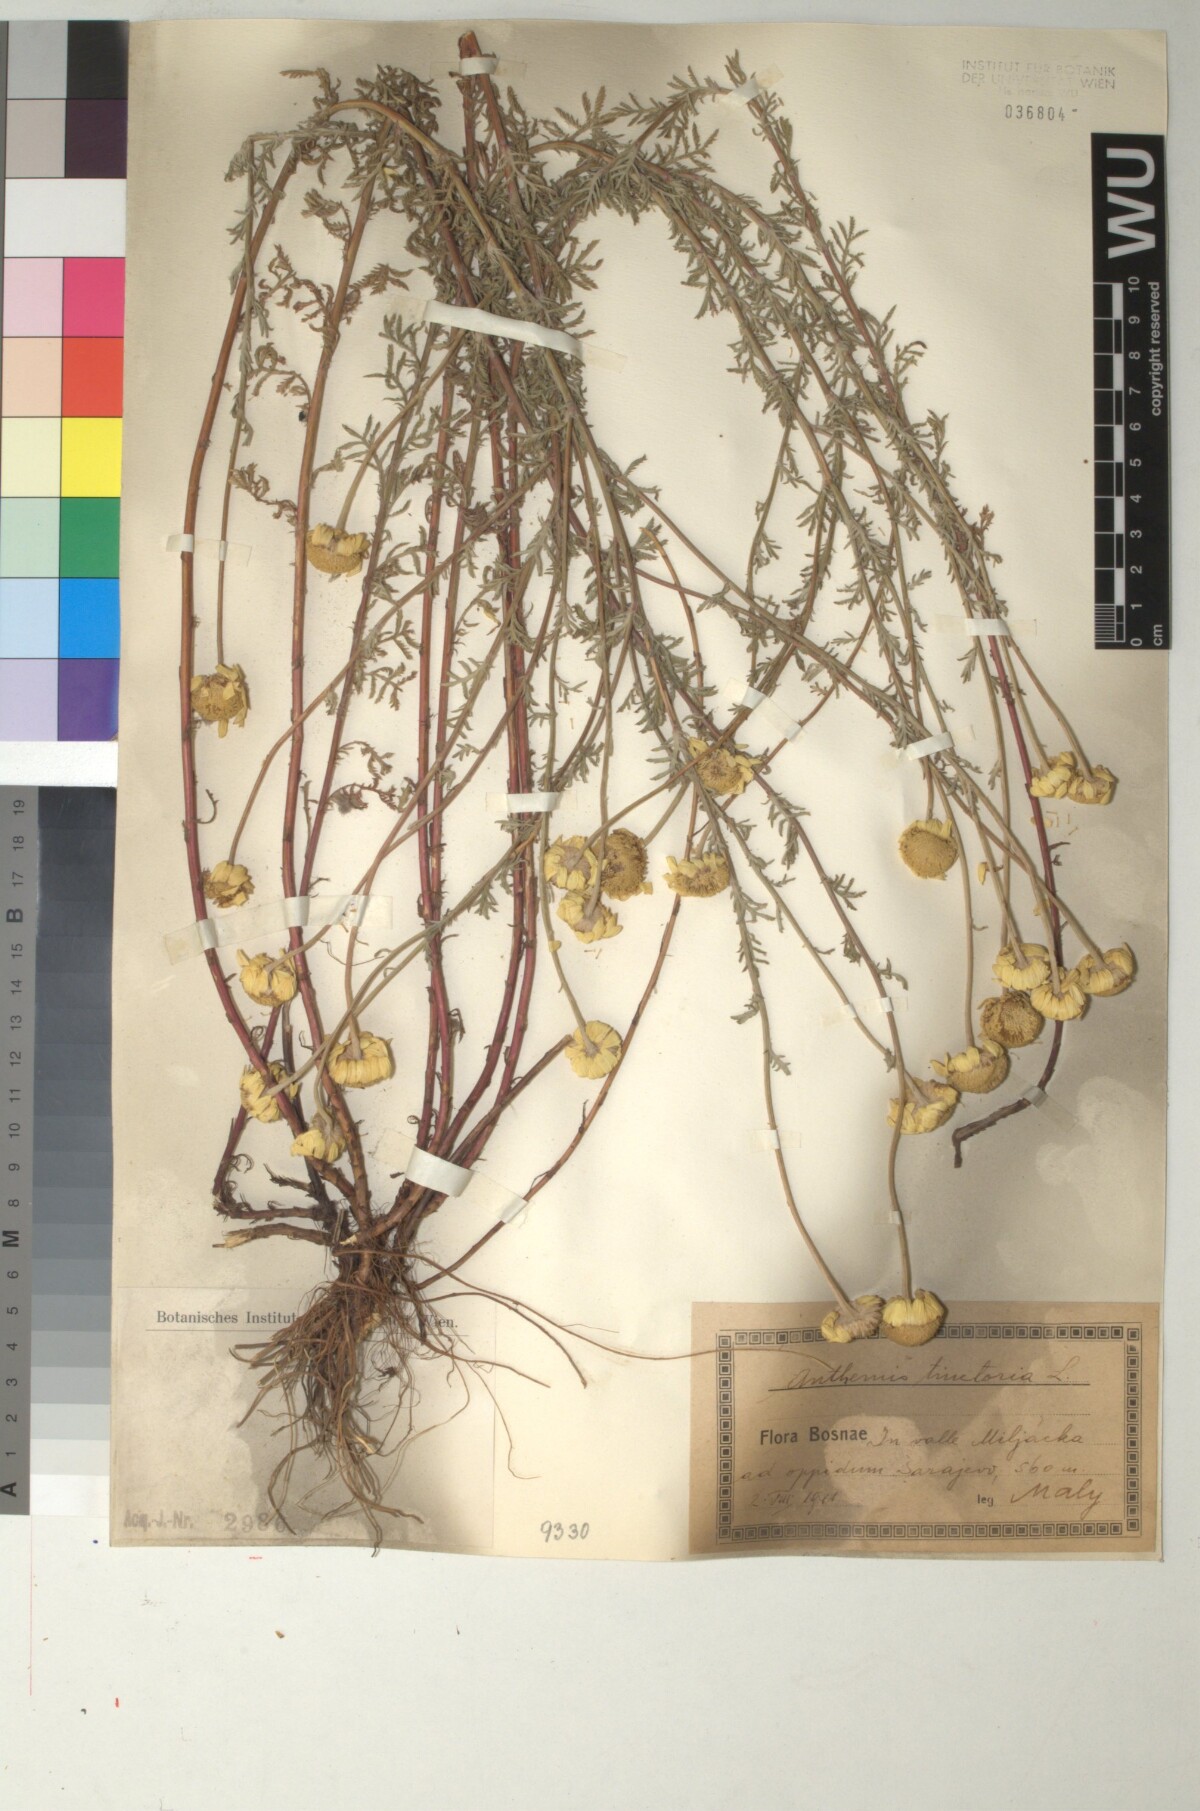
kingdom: Plantae
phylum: Tracheophyta
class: Magnoliopsida
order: Asterales
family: Asteraceae
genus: Cota
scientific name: Cota tinctoria
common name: Golden chamomile
